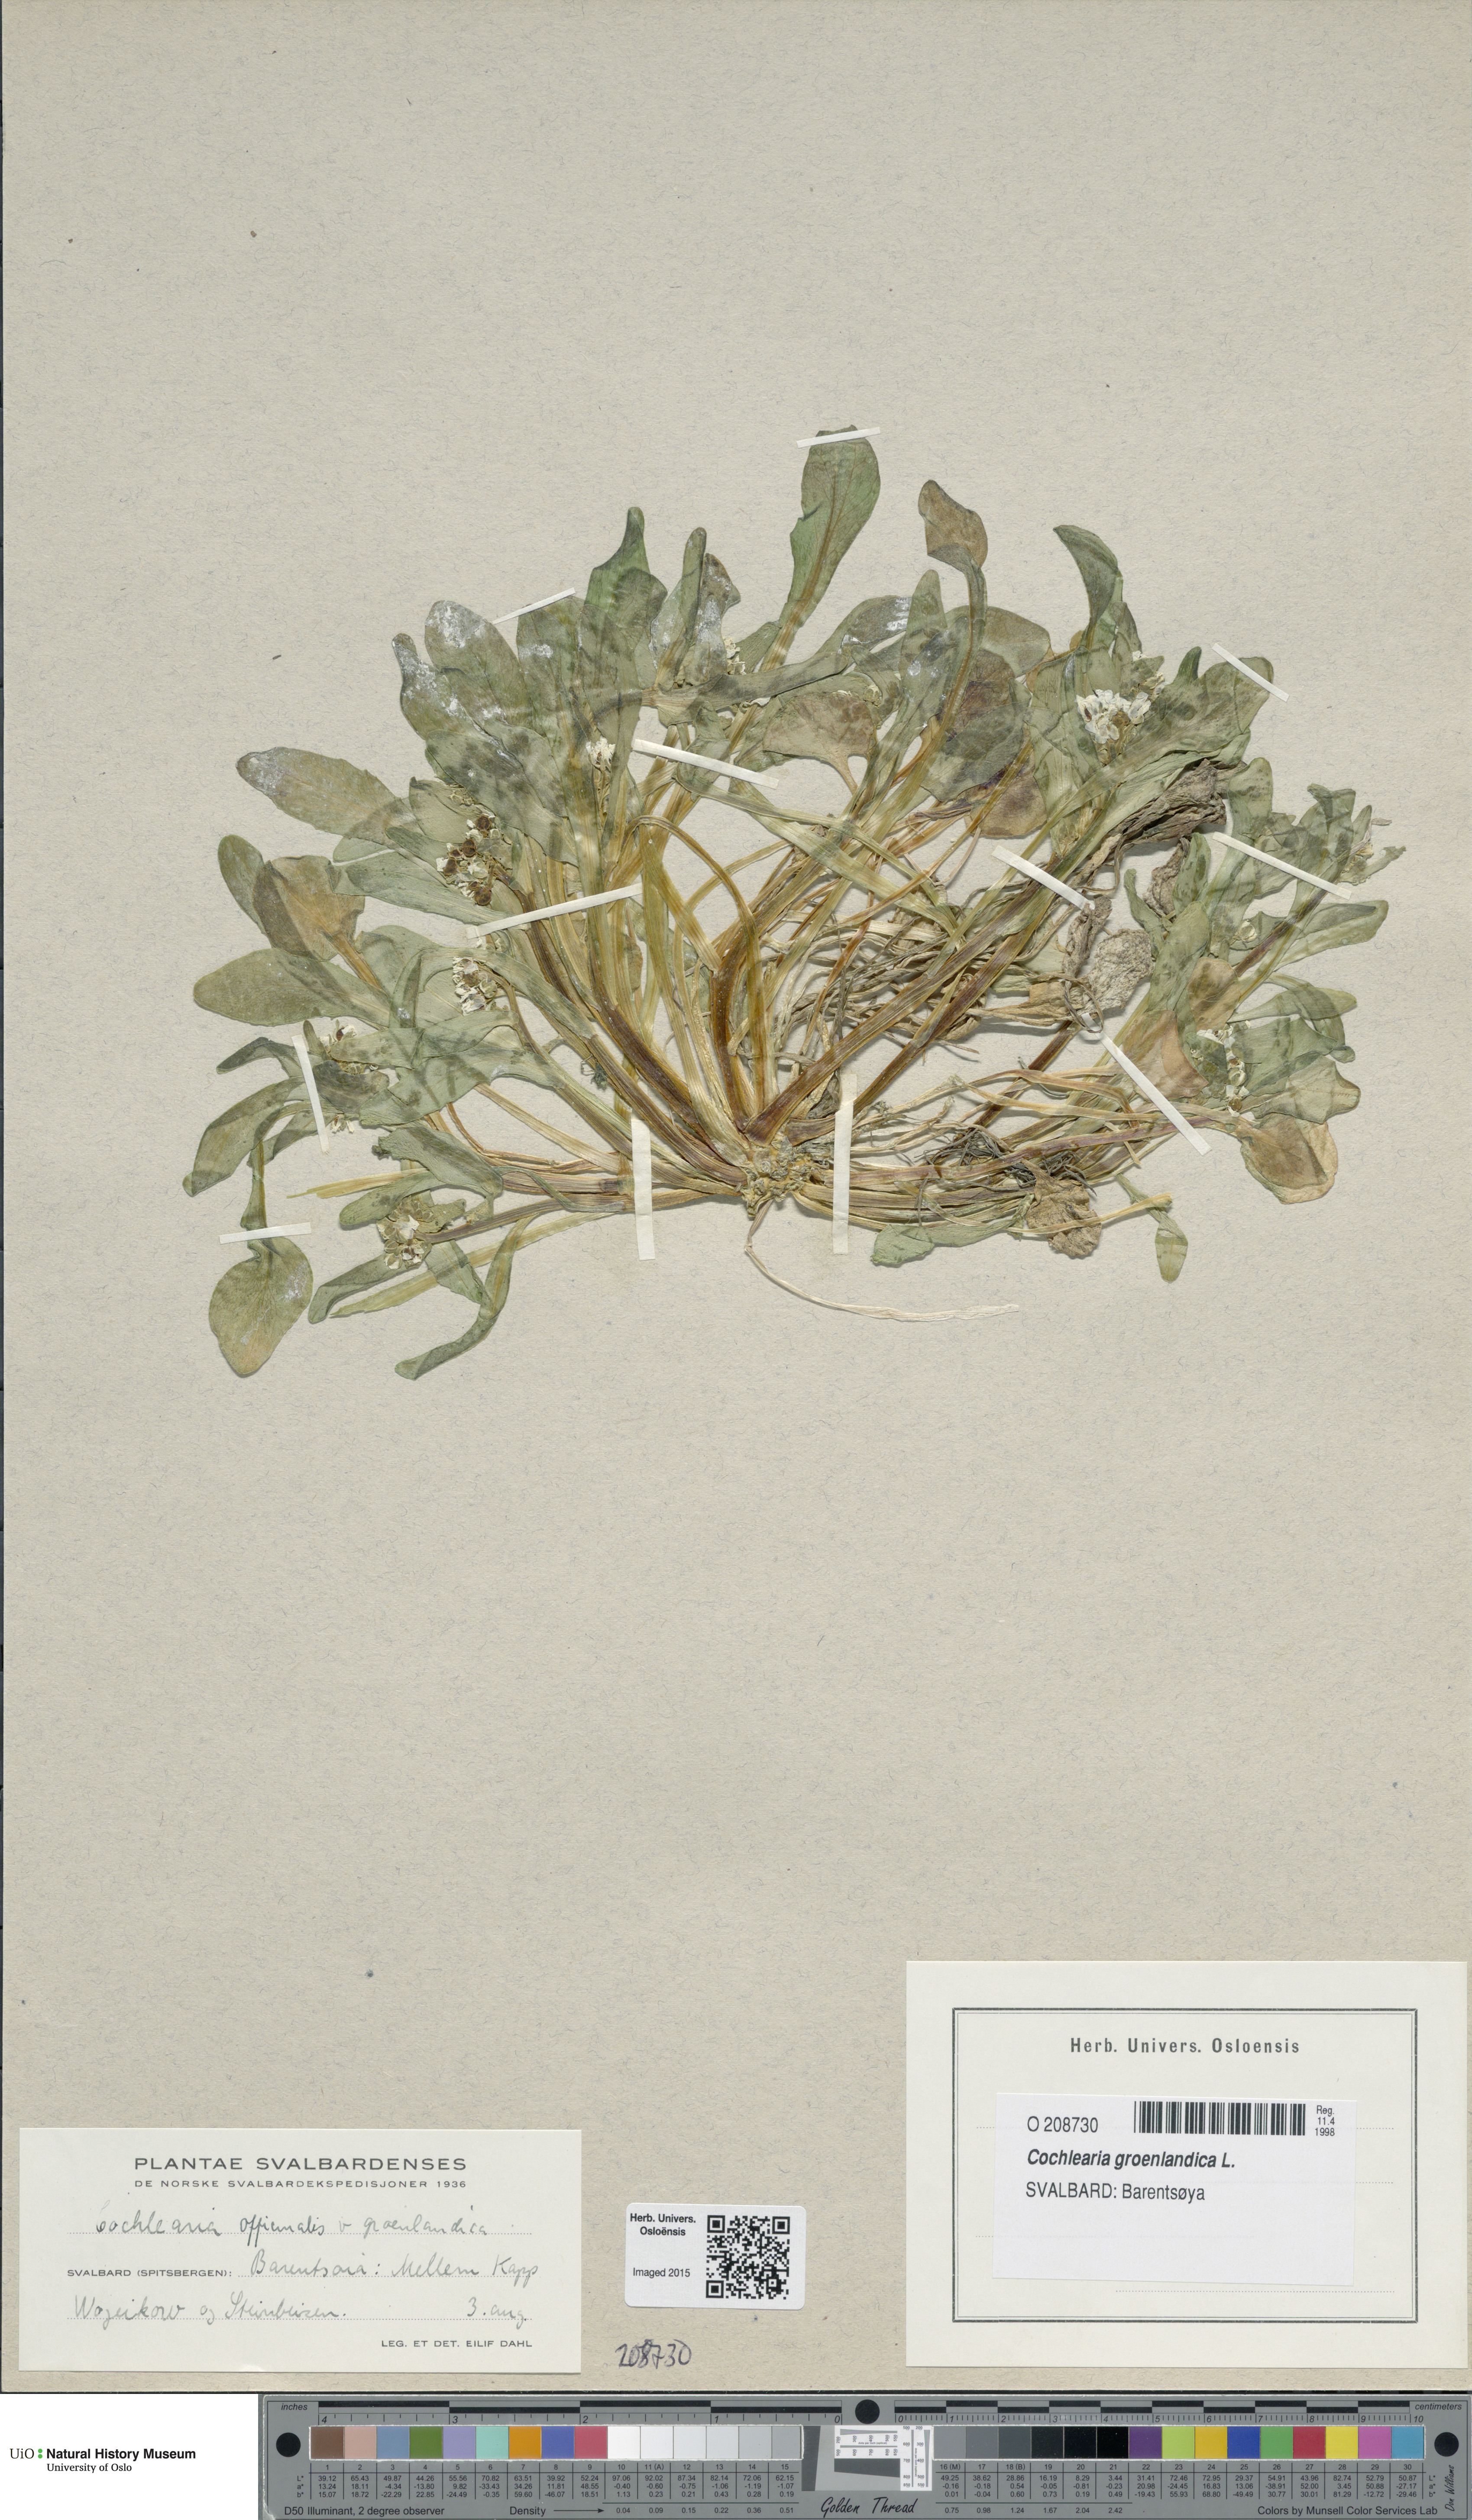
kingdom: Plantae
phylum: Tracheophyta
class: Magnoliopsida
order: Brassicales
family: Brassicaceae
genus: Cochlearia
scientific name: Cochlearia groenlandica
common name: Danish scurvygrass
